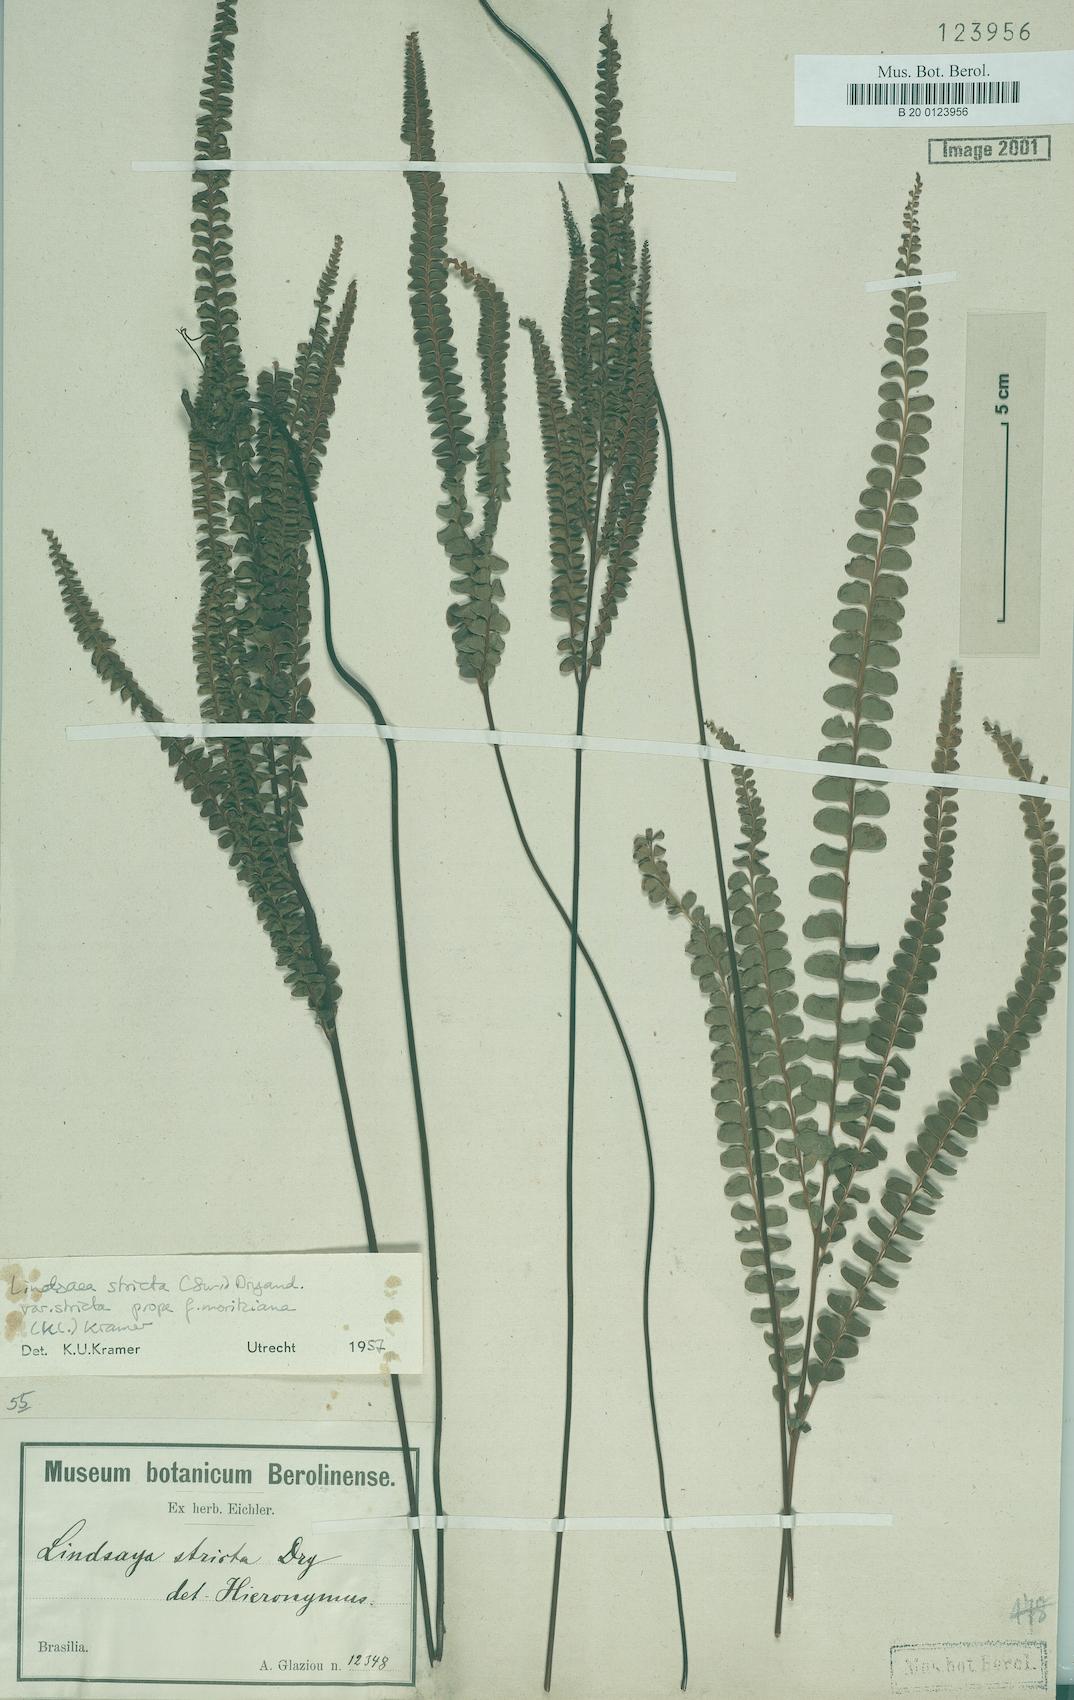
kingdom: Plantae
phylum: Tracheophyta
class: Polypodiopsida
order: Polypodiales
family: Lindsaeaceae
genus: Lindsaea
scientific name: Lindsaea stricta
